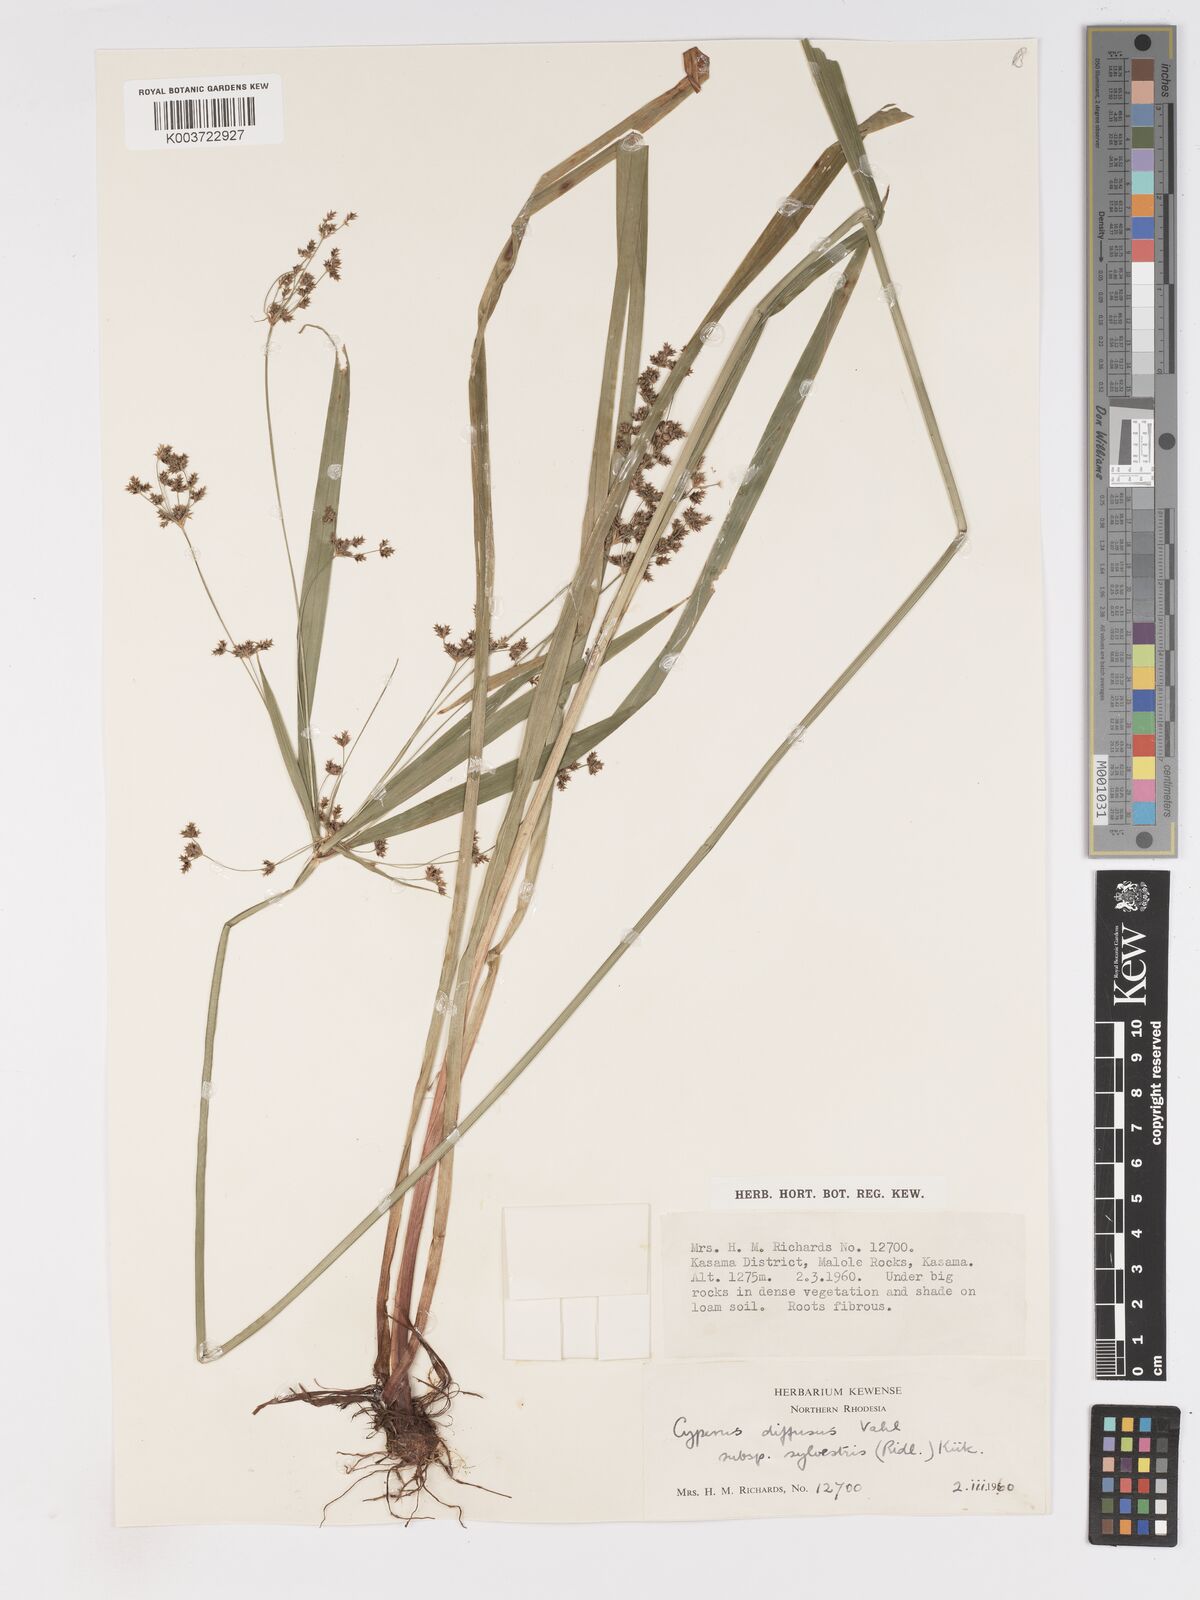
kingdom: Plantae
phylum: Tracheophyta
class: Liliopsida
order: Poales
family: Cyperaceae
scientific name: Cyperaceae
